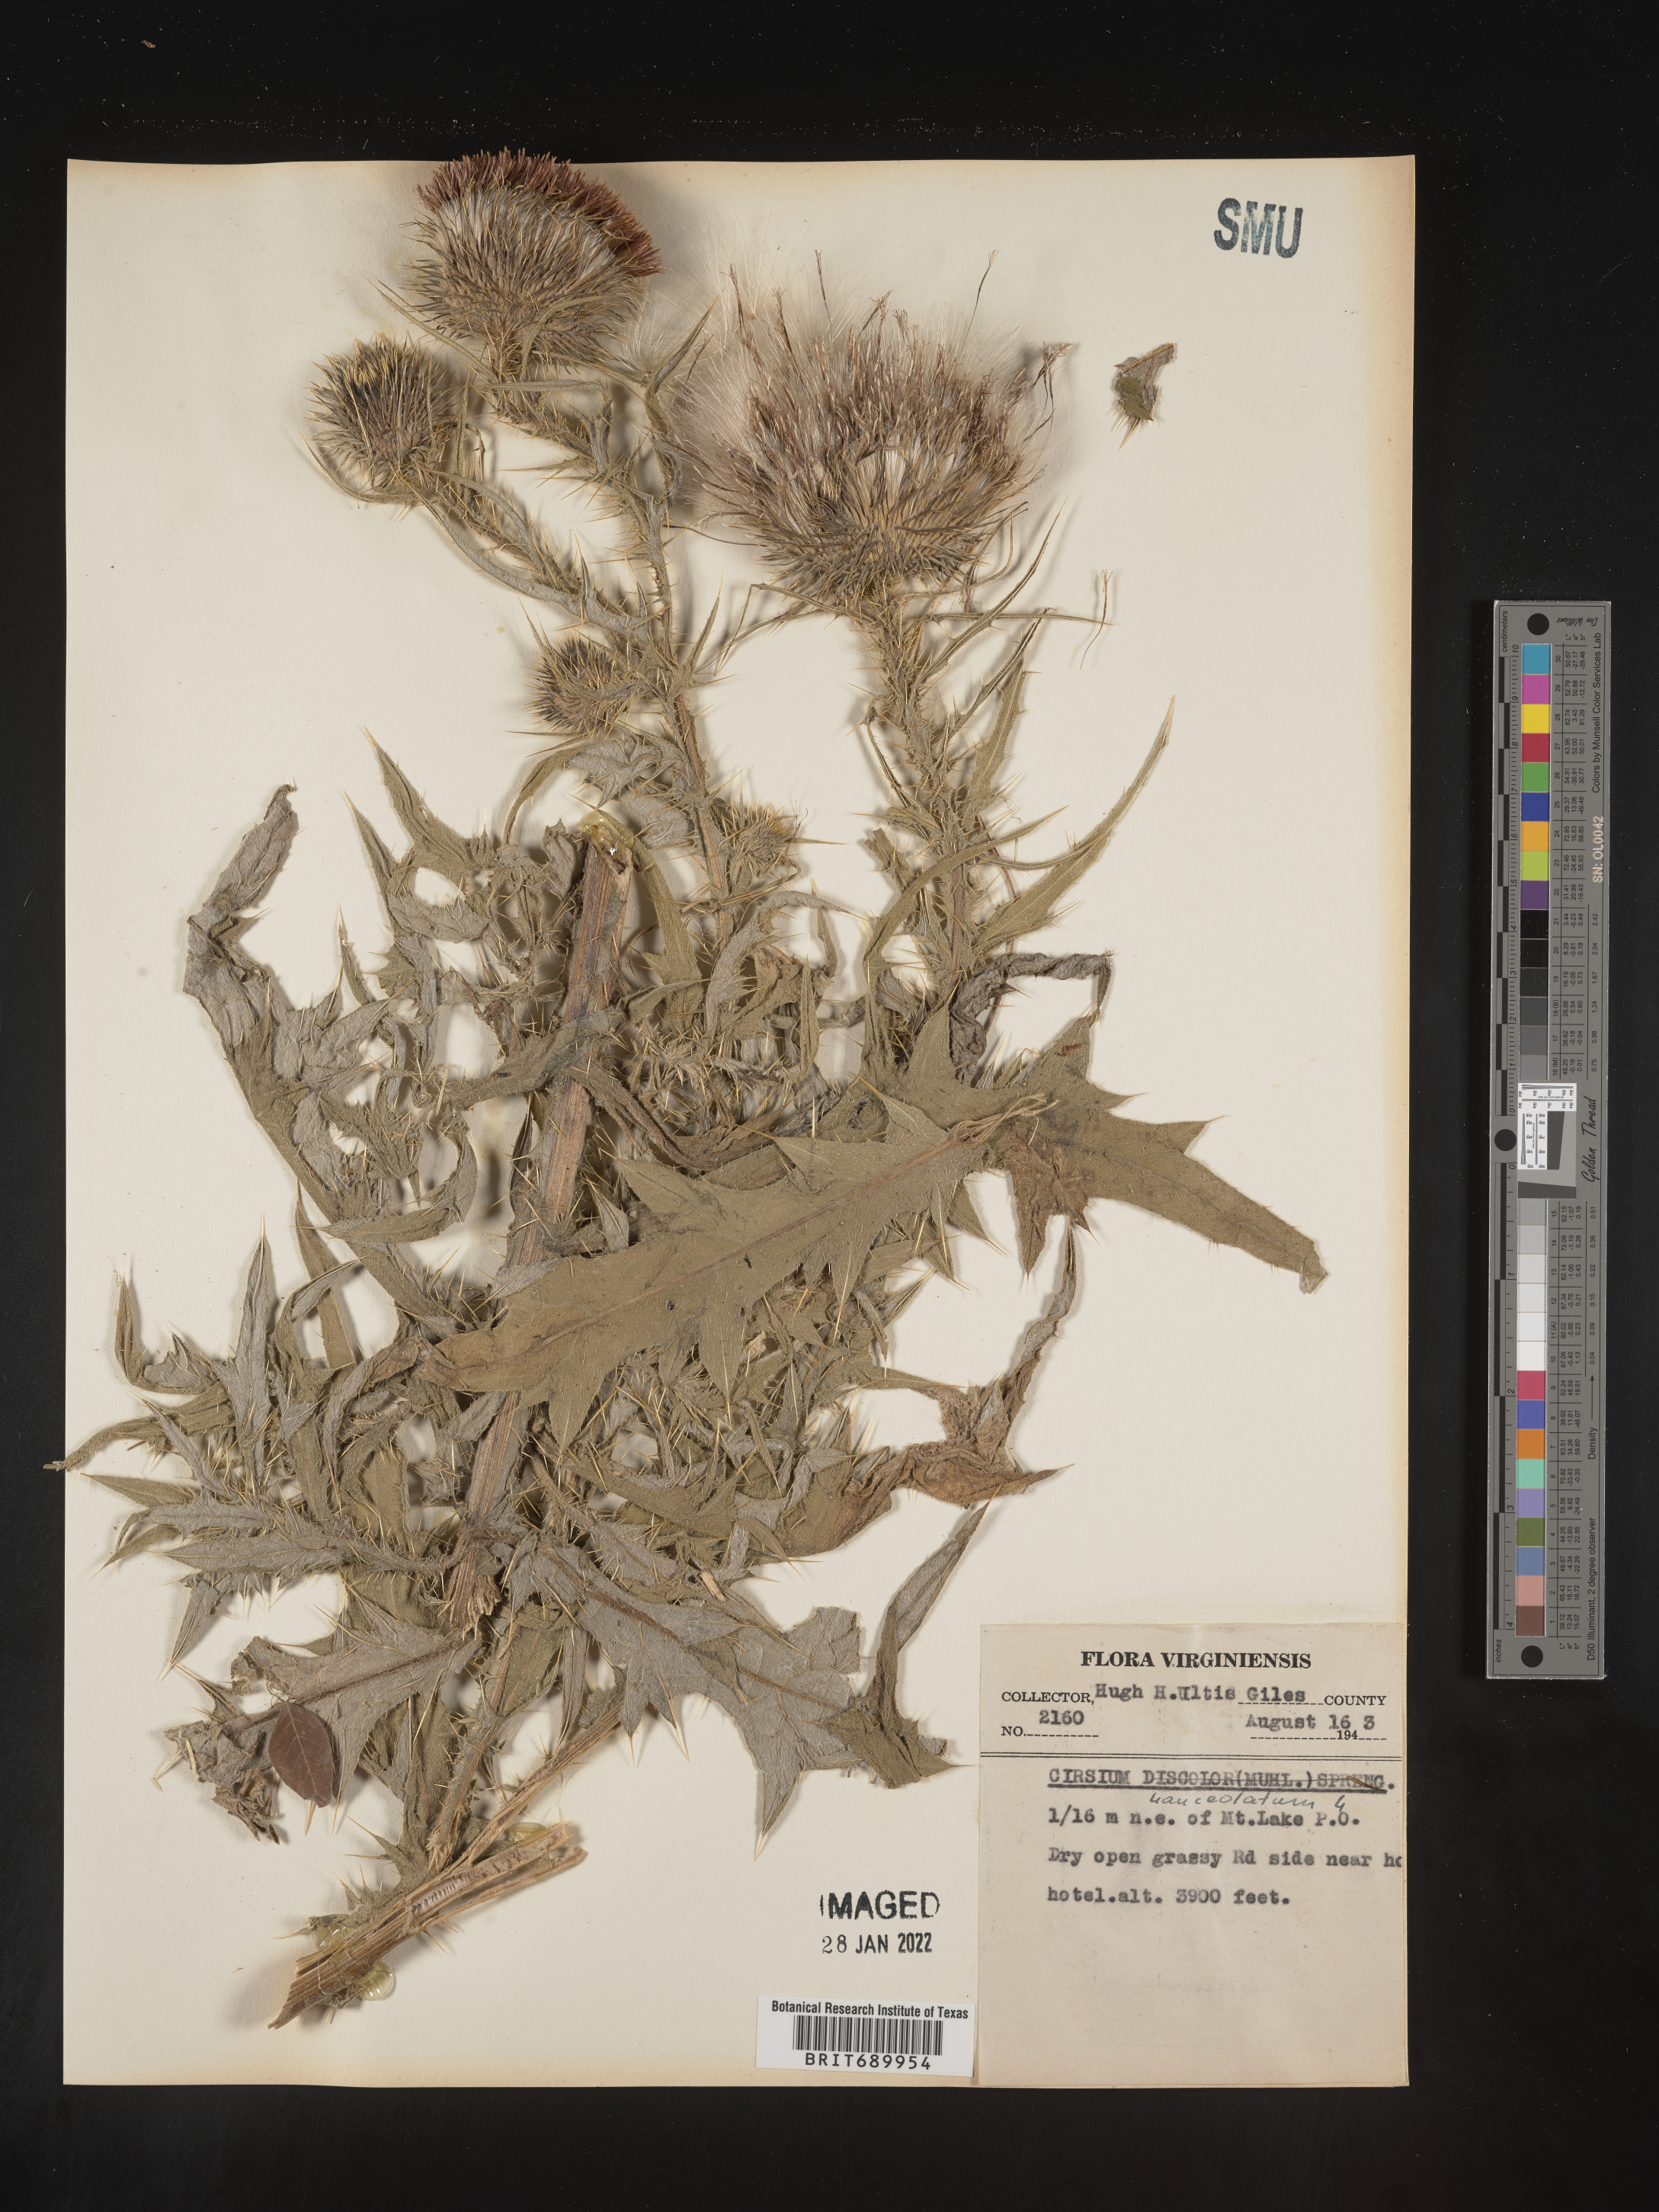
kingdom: Plantae
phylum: Tracheophyta
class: Magnoliopsida
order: Asterales
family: Asteraceae
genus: Cirsium
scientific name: Cirsium vulgare
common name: Bull thistle
